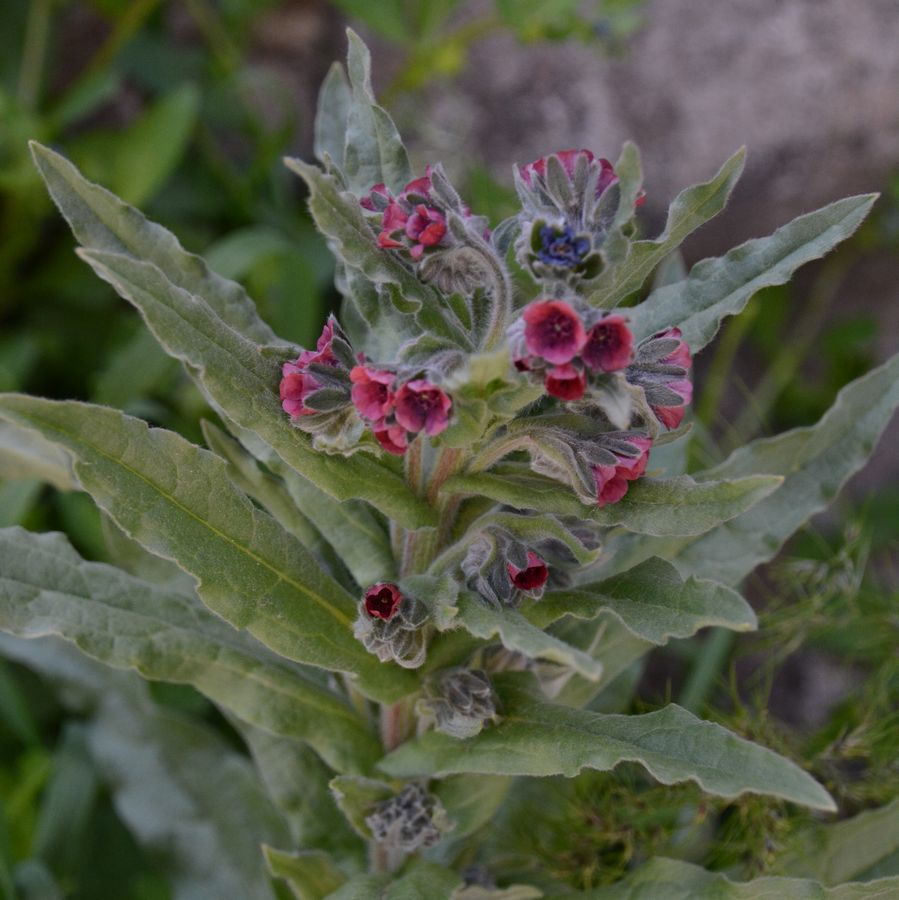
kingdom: Plantae
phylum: Tracheophyta
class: Magnoliopsida
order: Boraginales
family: Boraginaceae
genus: Cynoglossum
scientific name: Cynoglossum officinale
